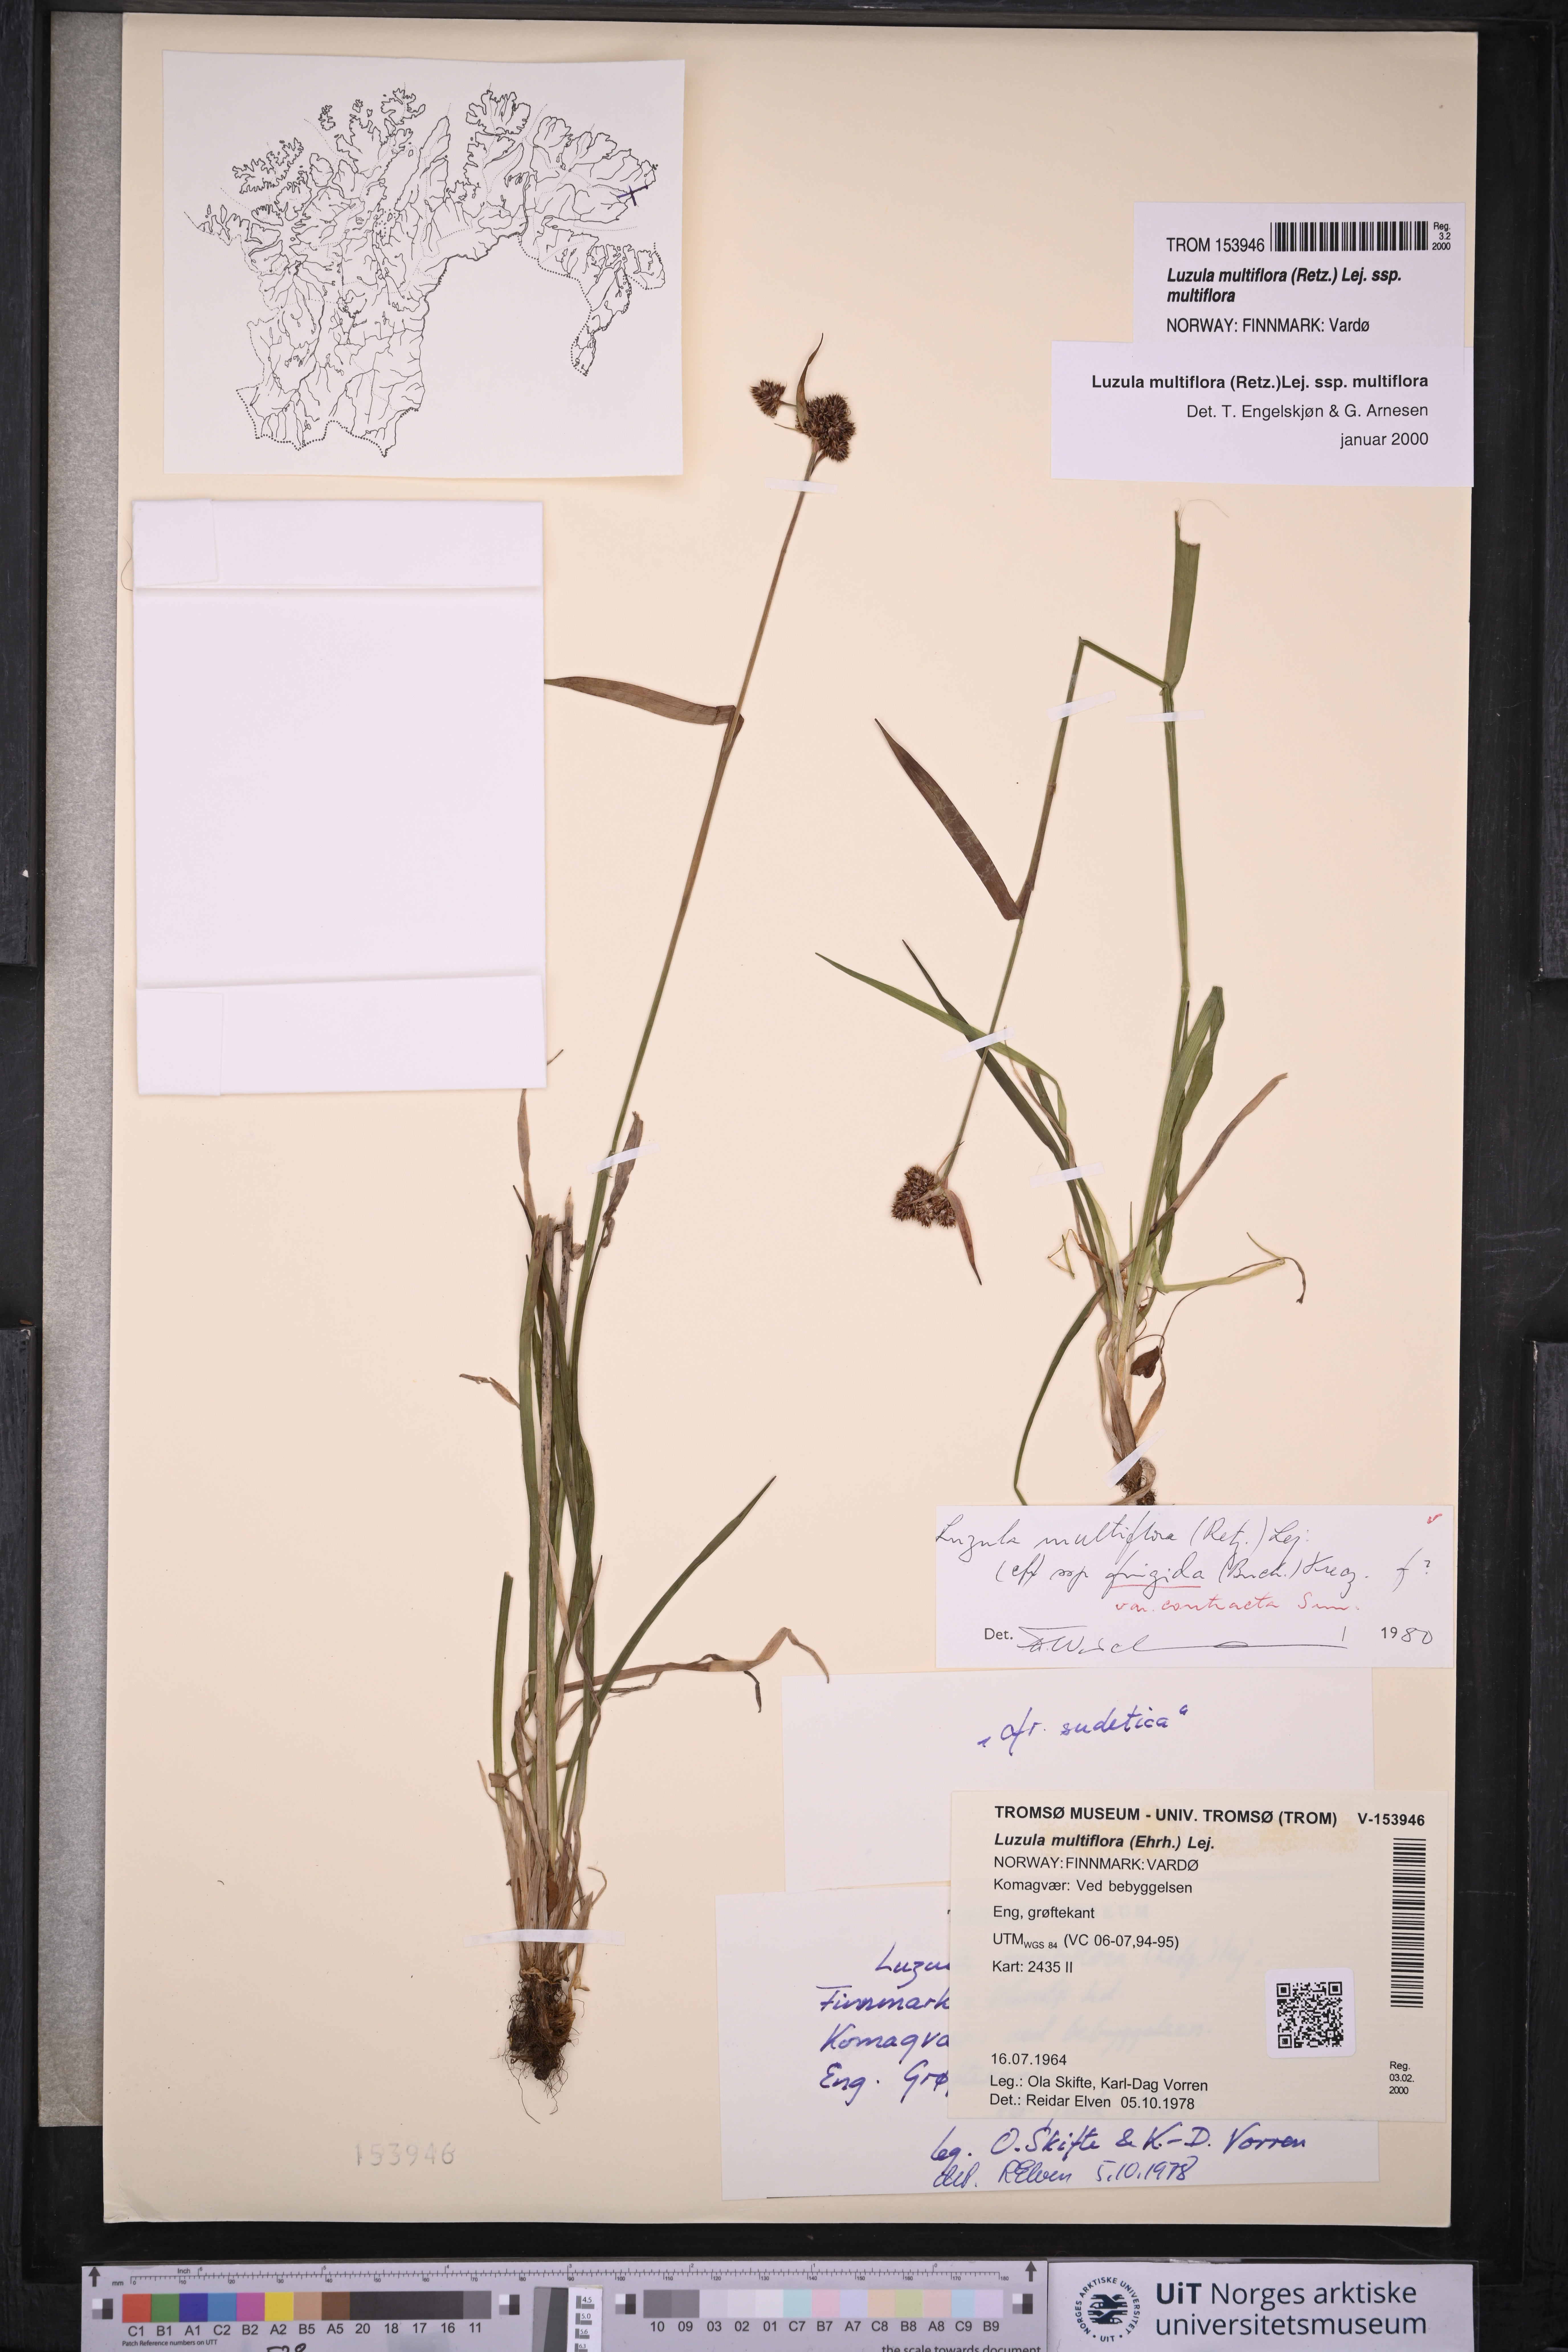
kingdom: Plantae
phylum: Tracheophyta
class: Liliopsida
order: Poales
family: Juncaceae
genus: Luzula
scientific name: Luzula multiflora
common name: Heath wood-rush
